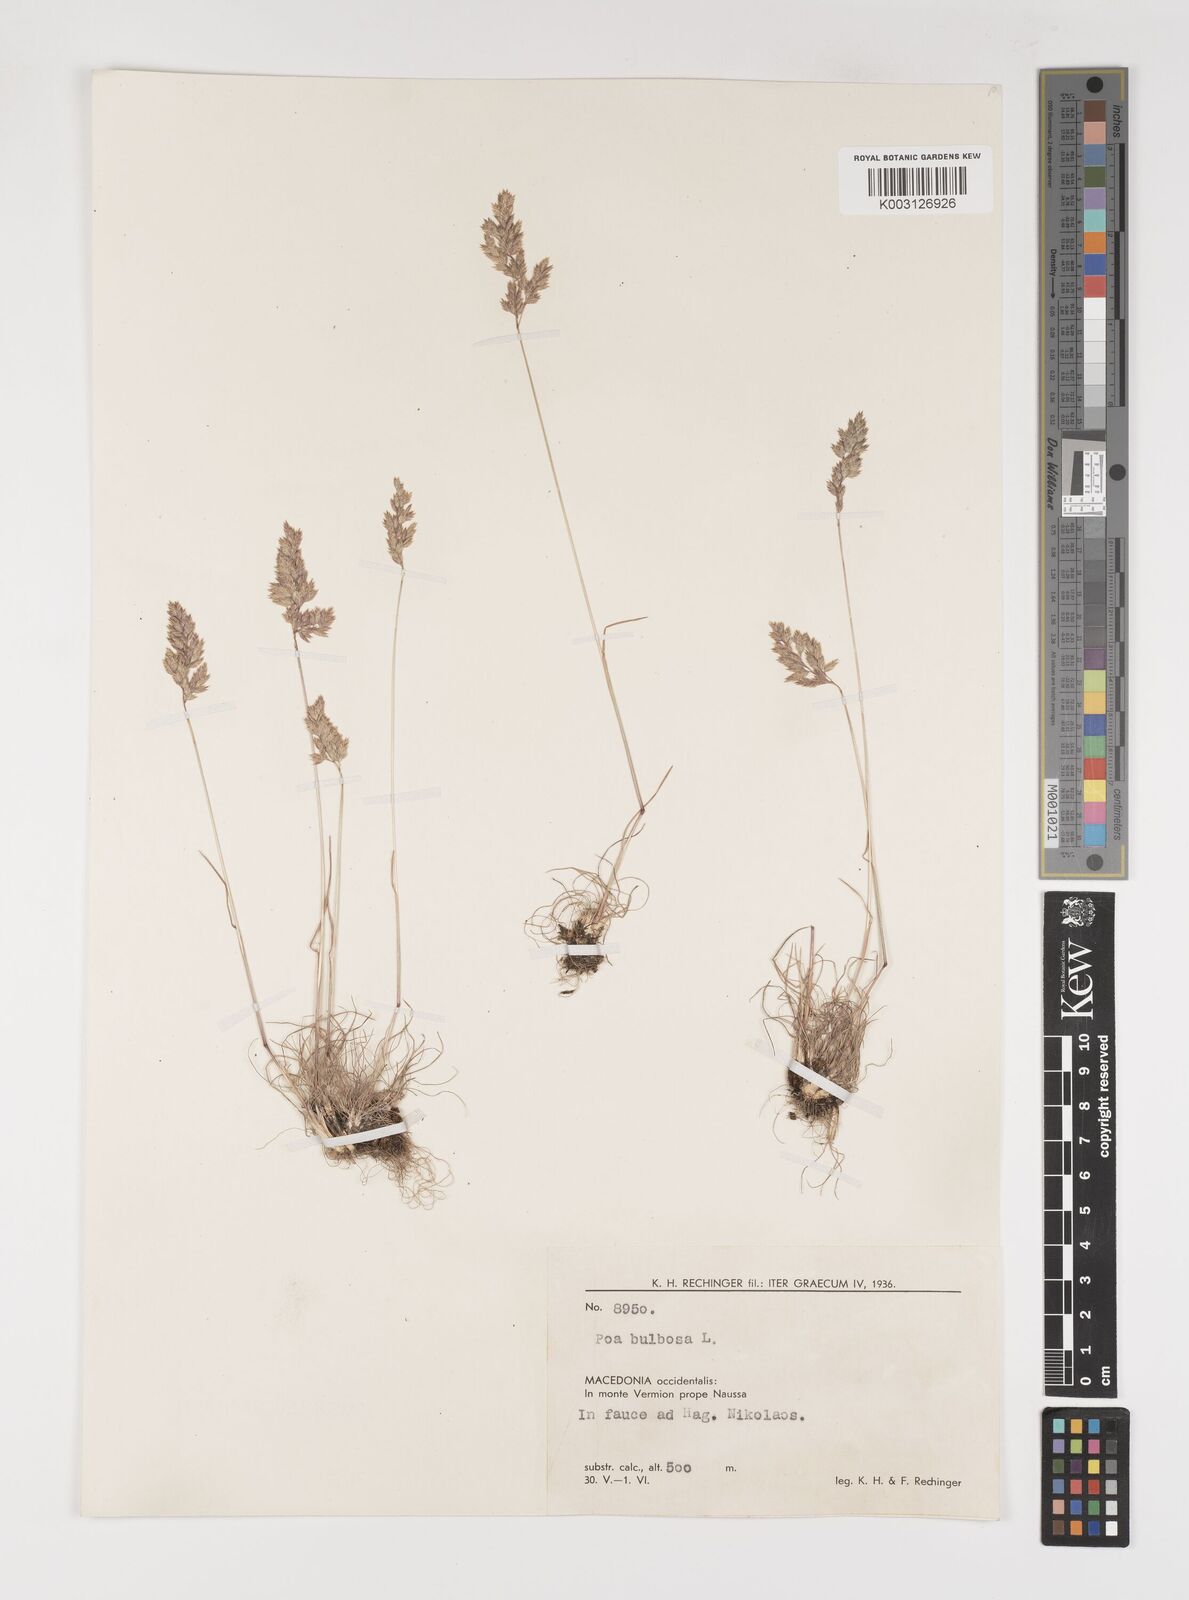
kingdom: Plantae
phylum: Tracheophyta
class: Liliopsida
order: Poales
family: Poaceae
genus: Poa
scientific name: Poa bulbosa
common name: Bulbous bluegrass
